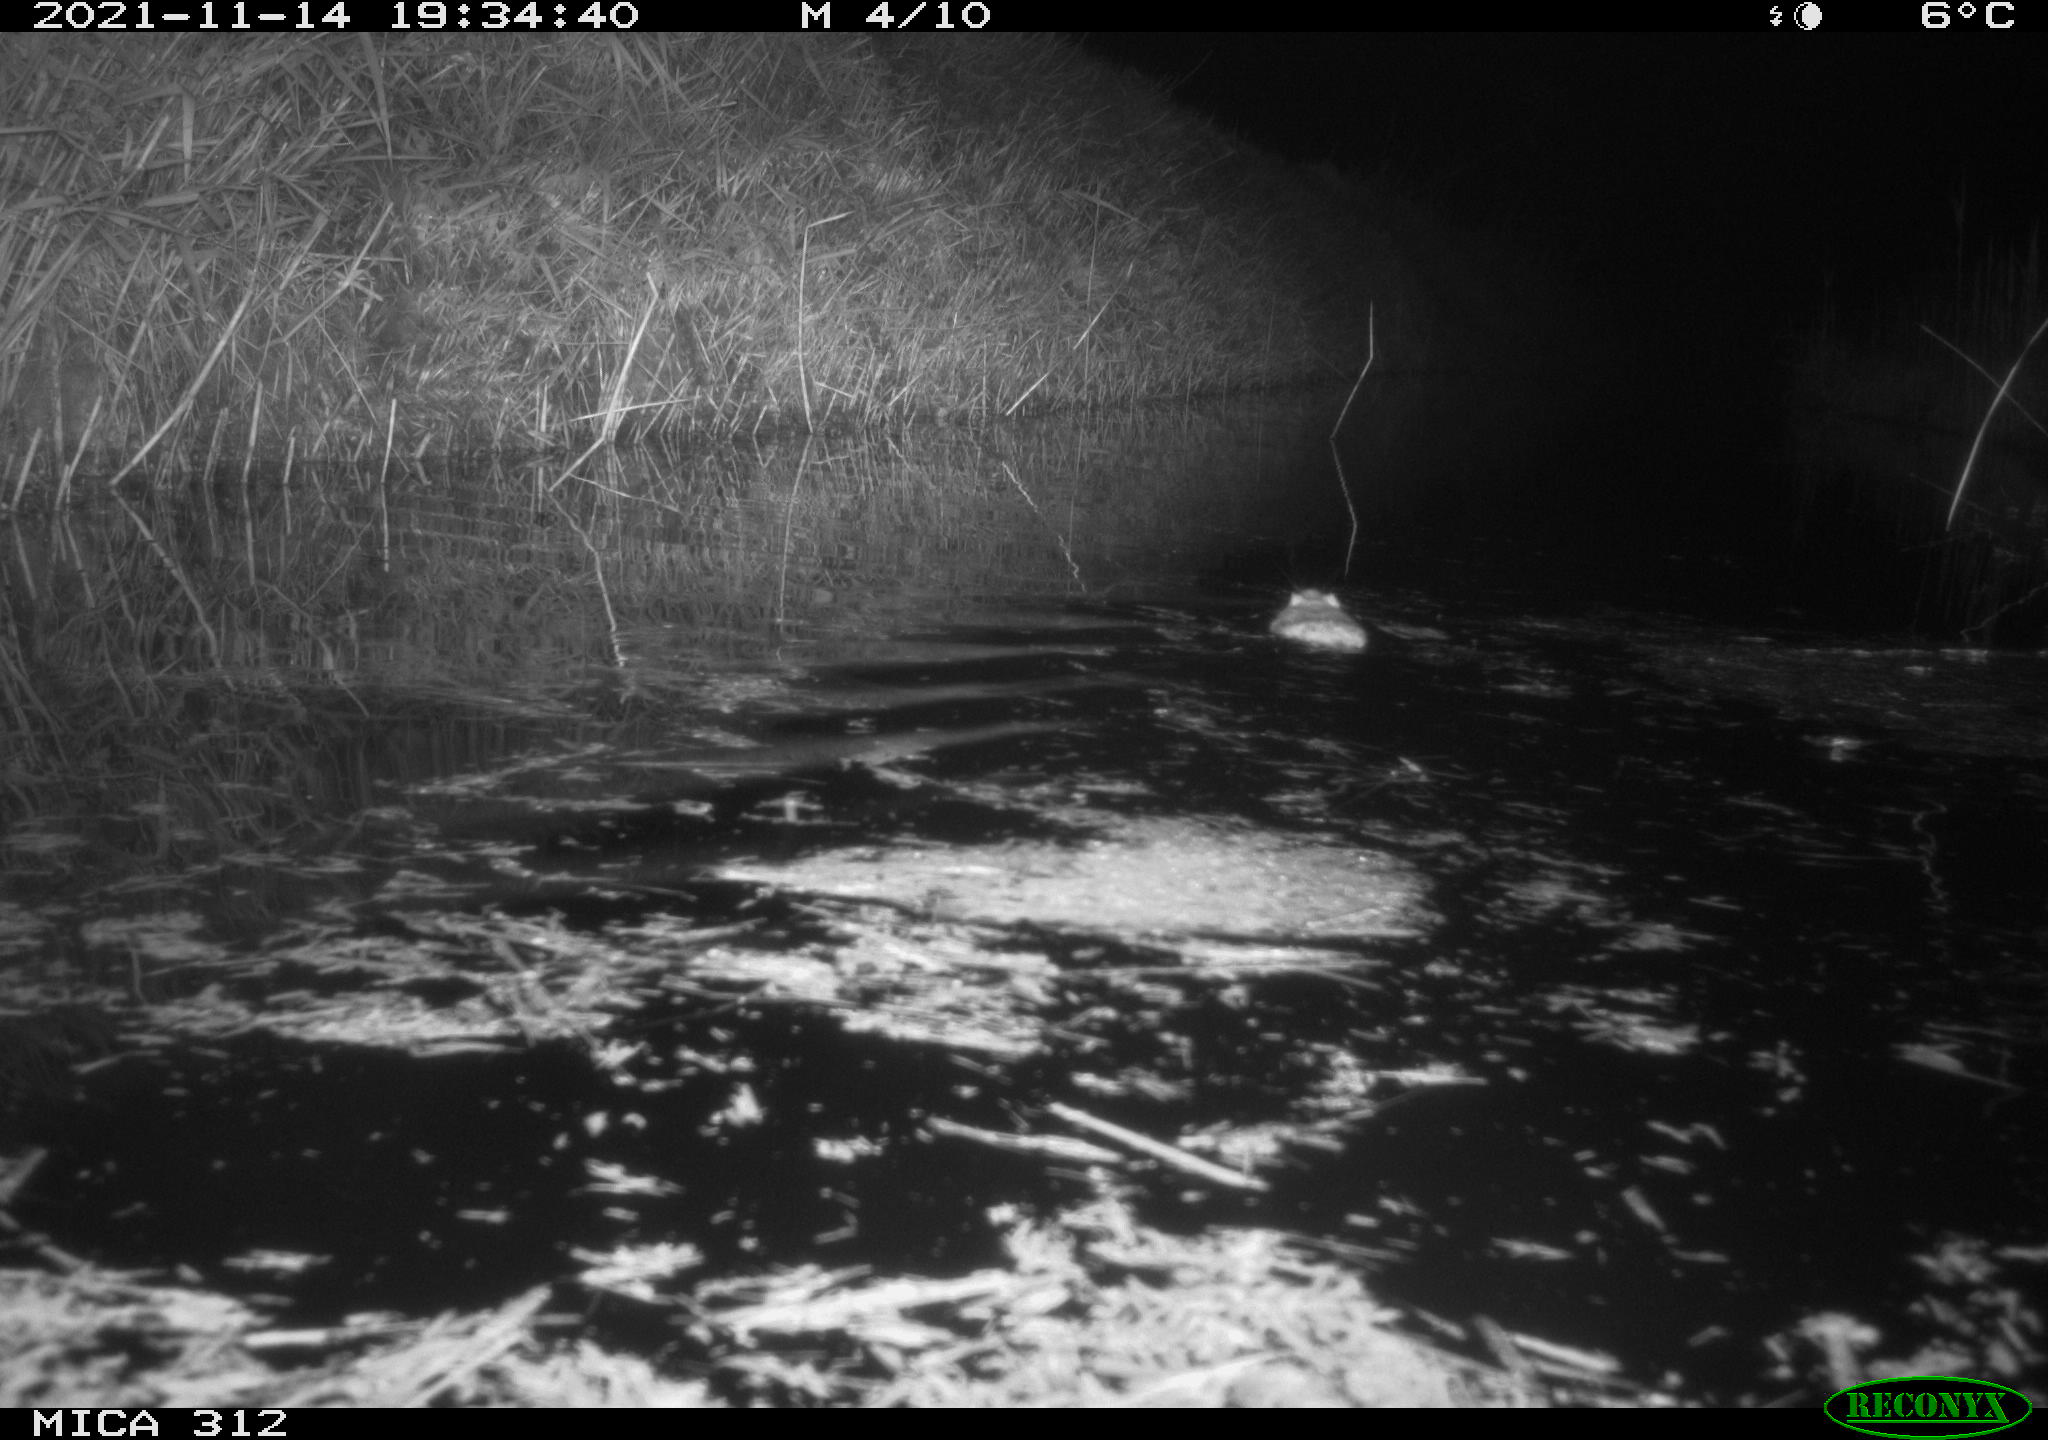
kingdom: Animalia
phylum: Chordata
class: Mammalia
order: Rodentia
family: Muridae
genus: Rattus
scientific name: Rattus norvegicus
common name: Brown rat
